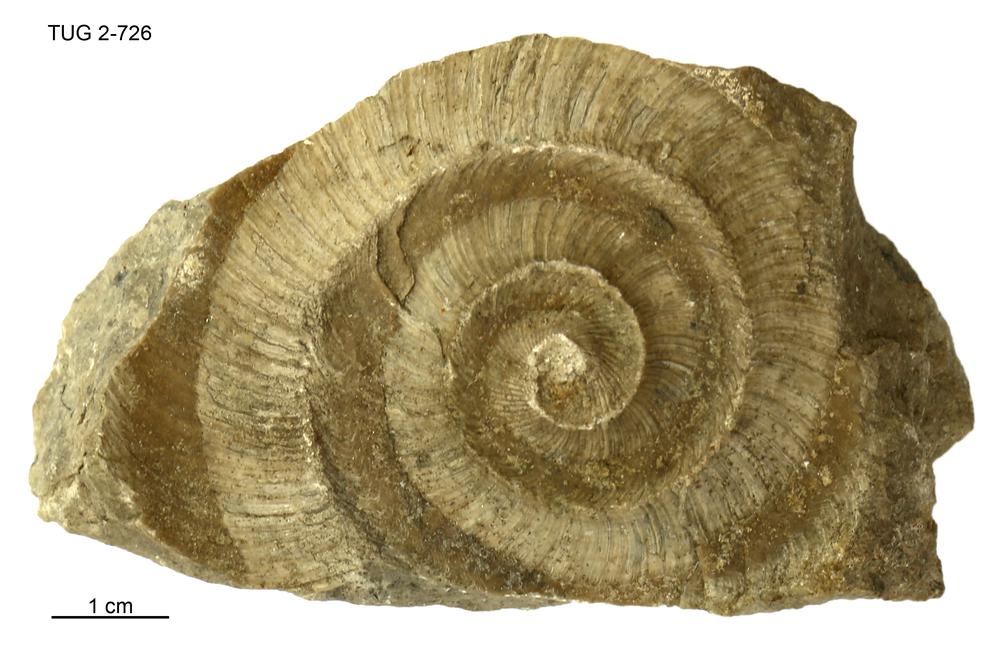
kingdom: Animalia
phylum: Mollusca
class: Cephalopoda
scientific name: Cephalopoda
